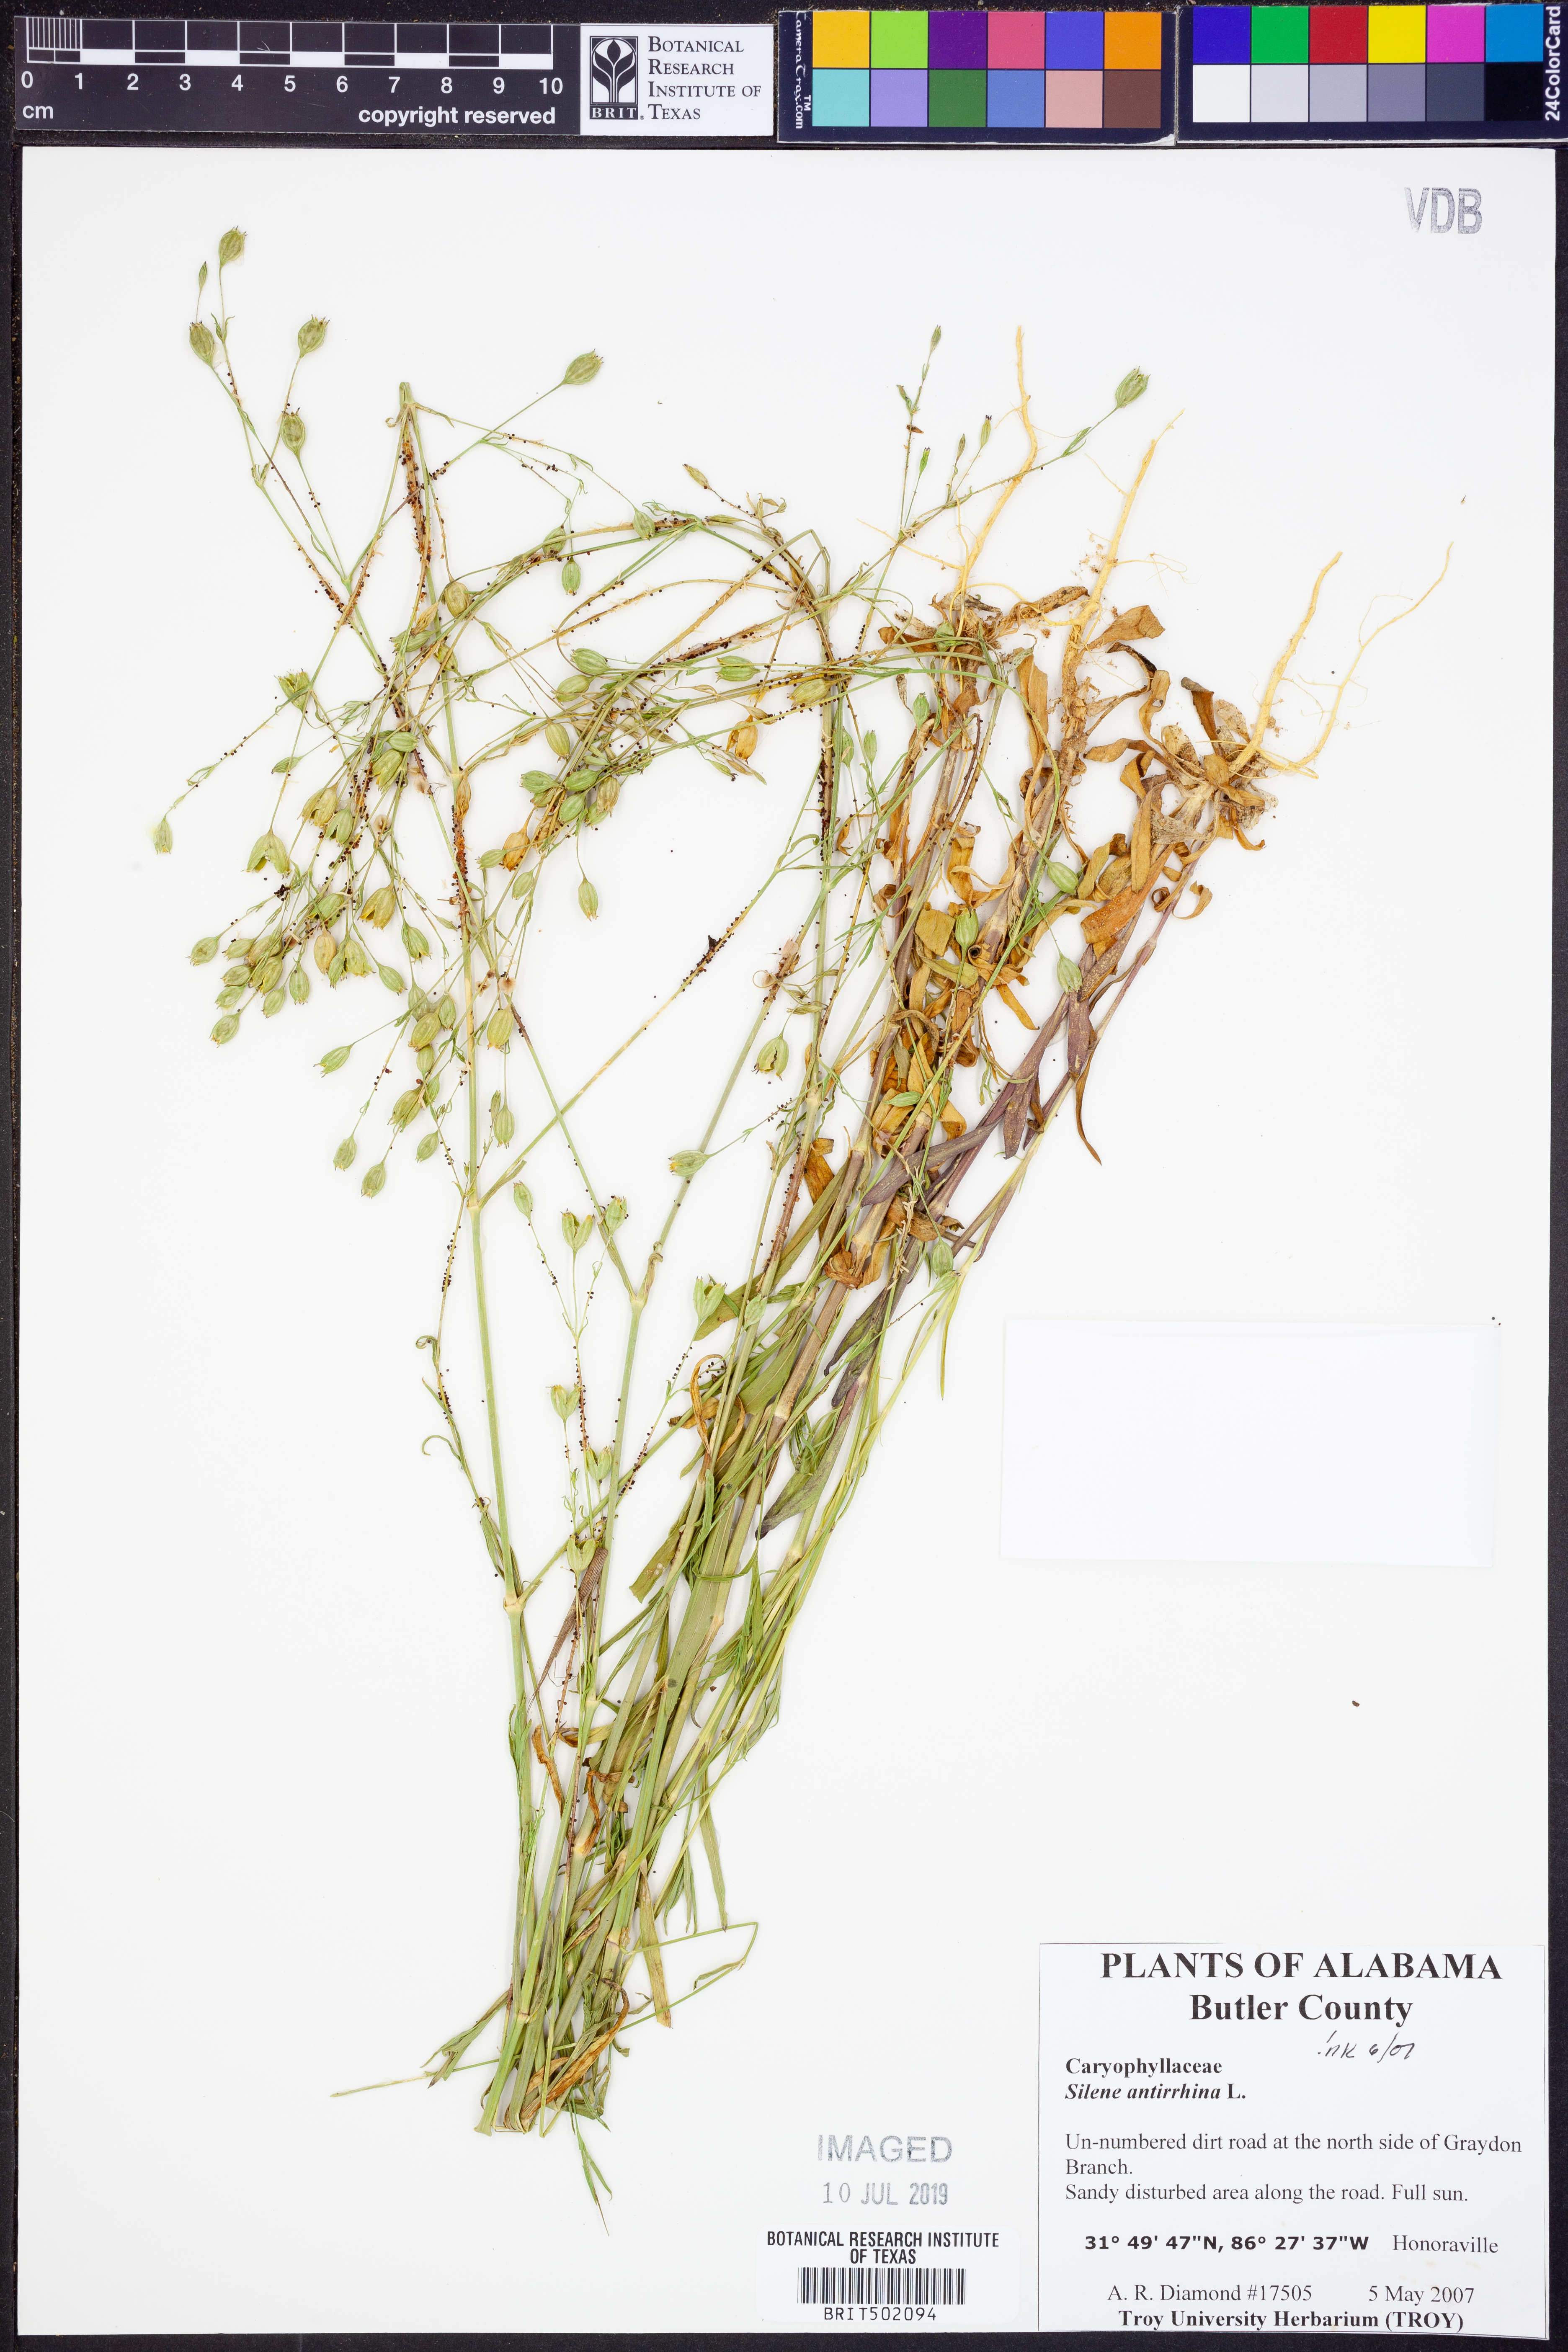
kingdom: Plantae
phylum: Tracheophyta
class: Magnoliopsida
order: Caryophyllales
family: Caryophyllaceae
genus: Silene
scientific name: Silene antirrhina
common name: Sleepy catchfly
